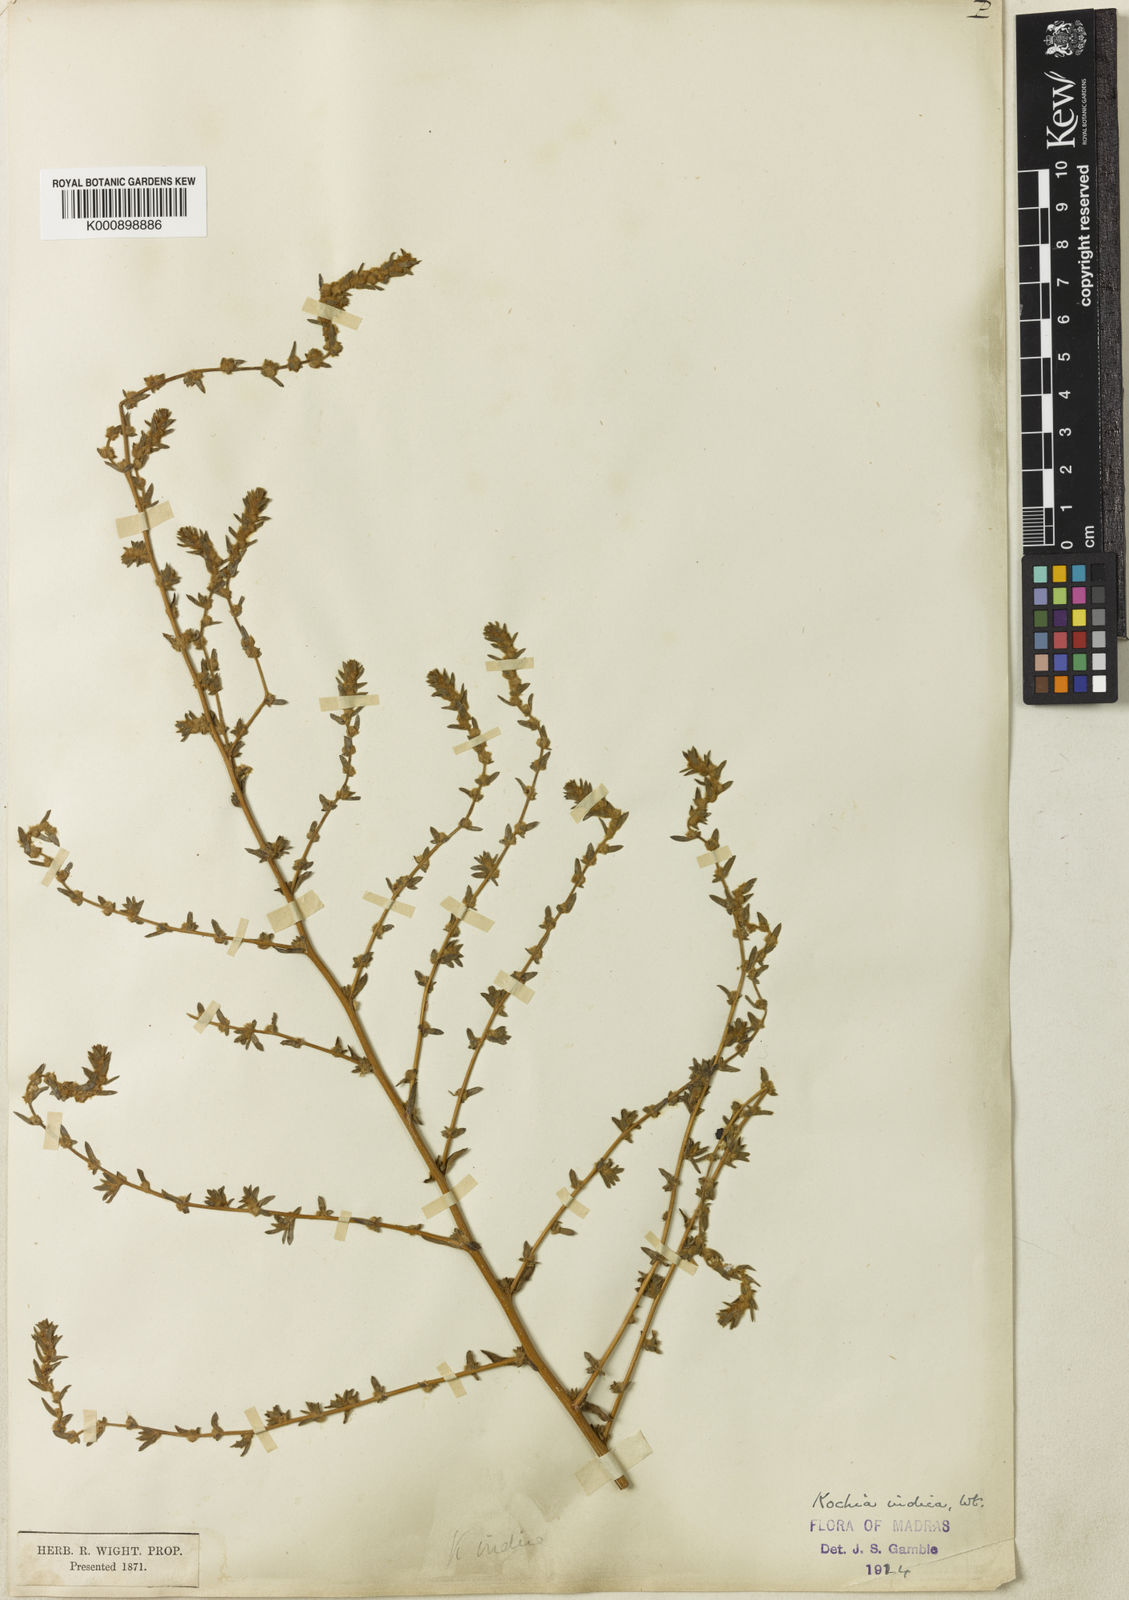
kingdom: Plantae
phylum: Tracheophyta
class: Magnoliopsida
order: Caryophyllales
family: Amaranthaceae
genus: Bassia
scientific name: Bassia indica
